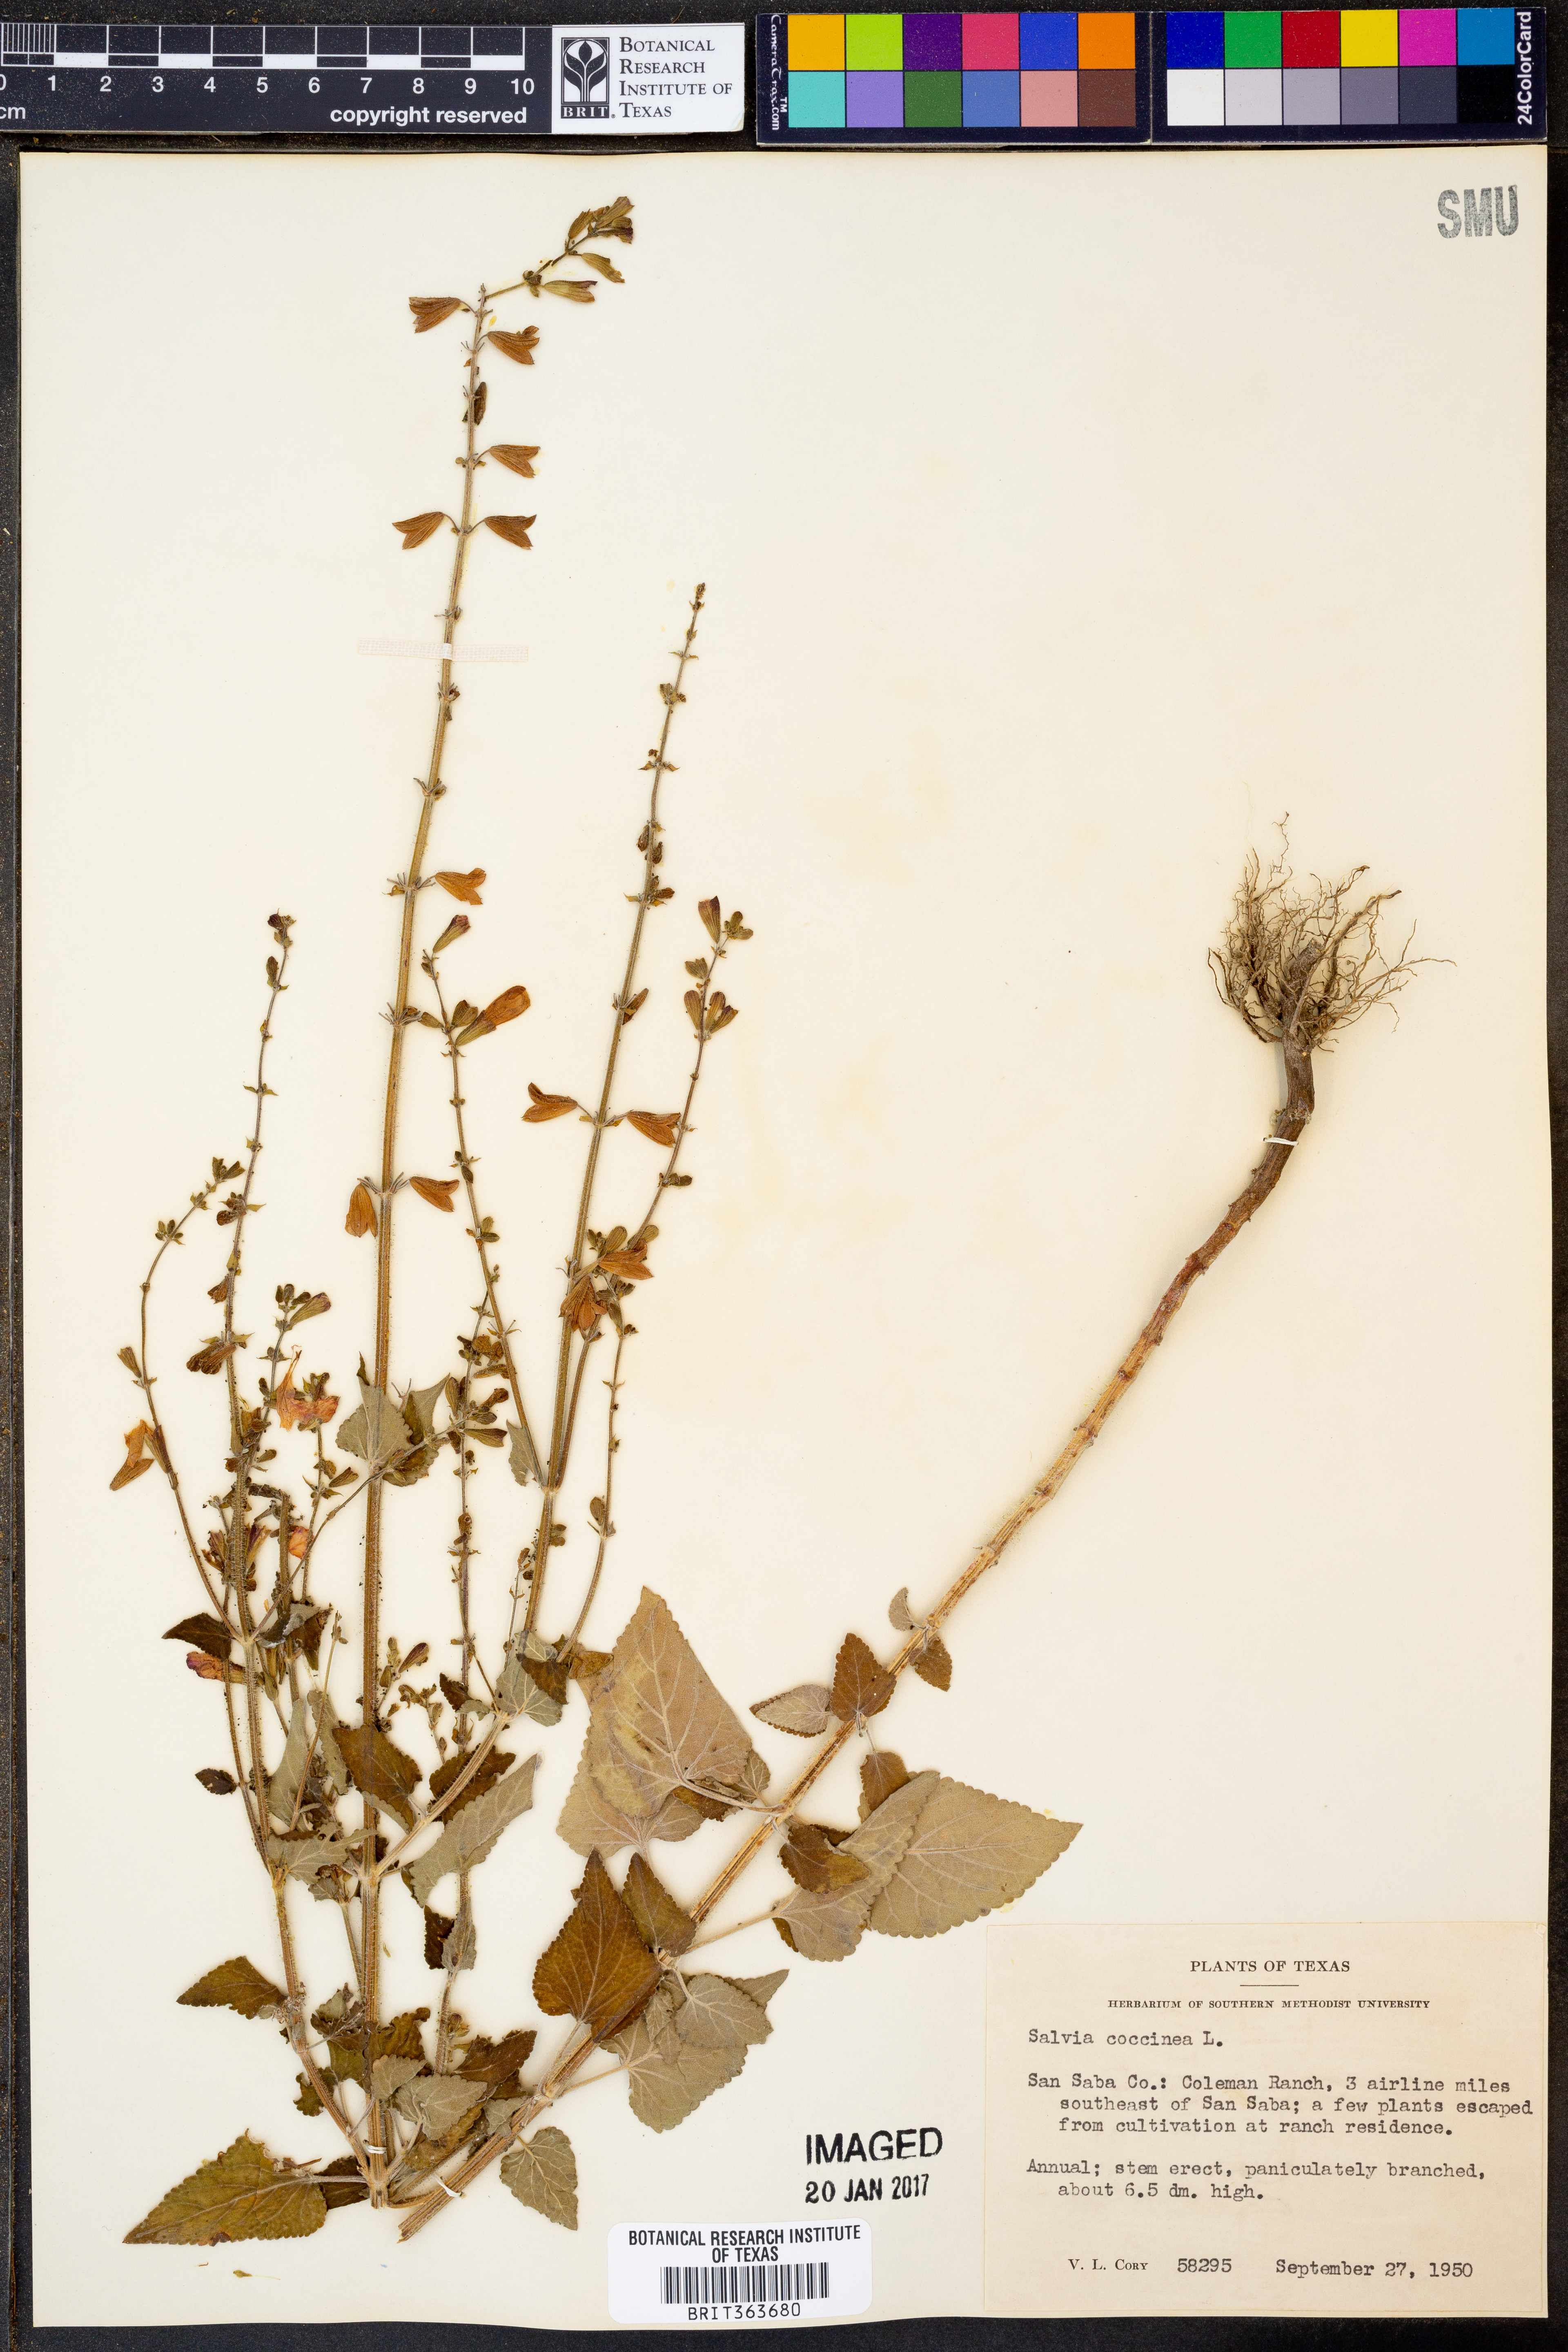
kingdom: Plantae
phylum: Tracheophyta
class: Magnoliopsida
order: Lamiales
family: Lamiaceae
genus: Salvia
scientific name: Salvia coccinea
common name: Blood sage
